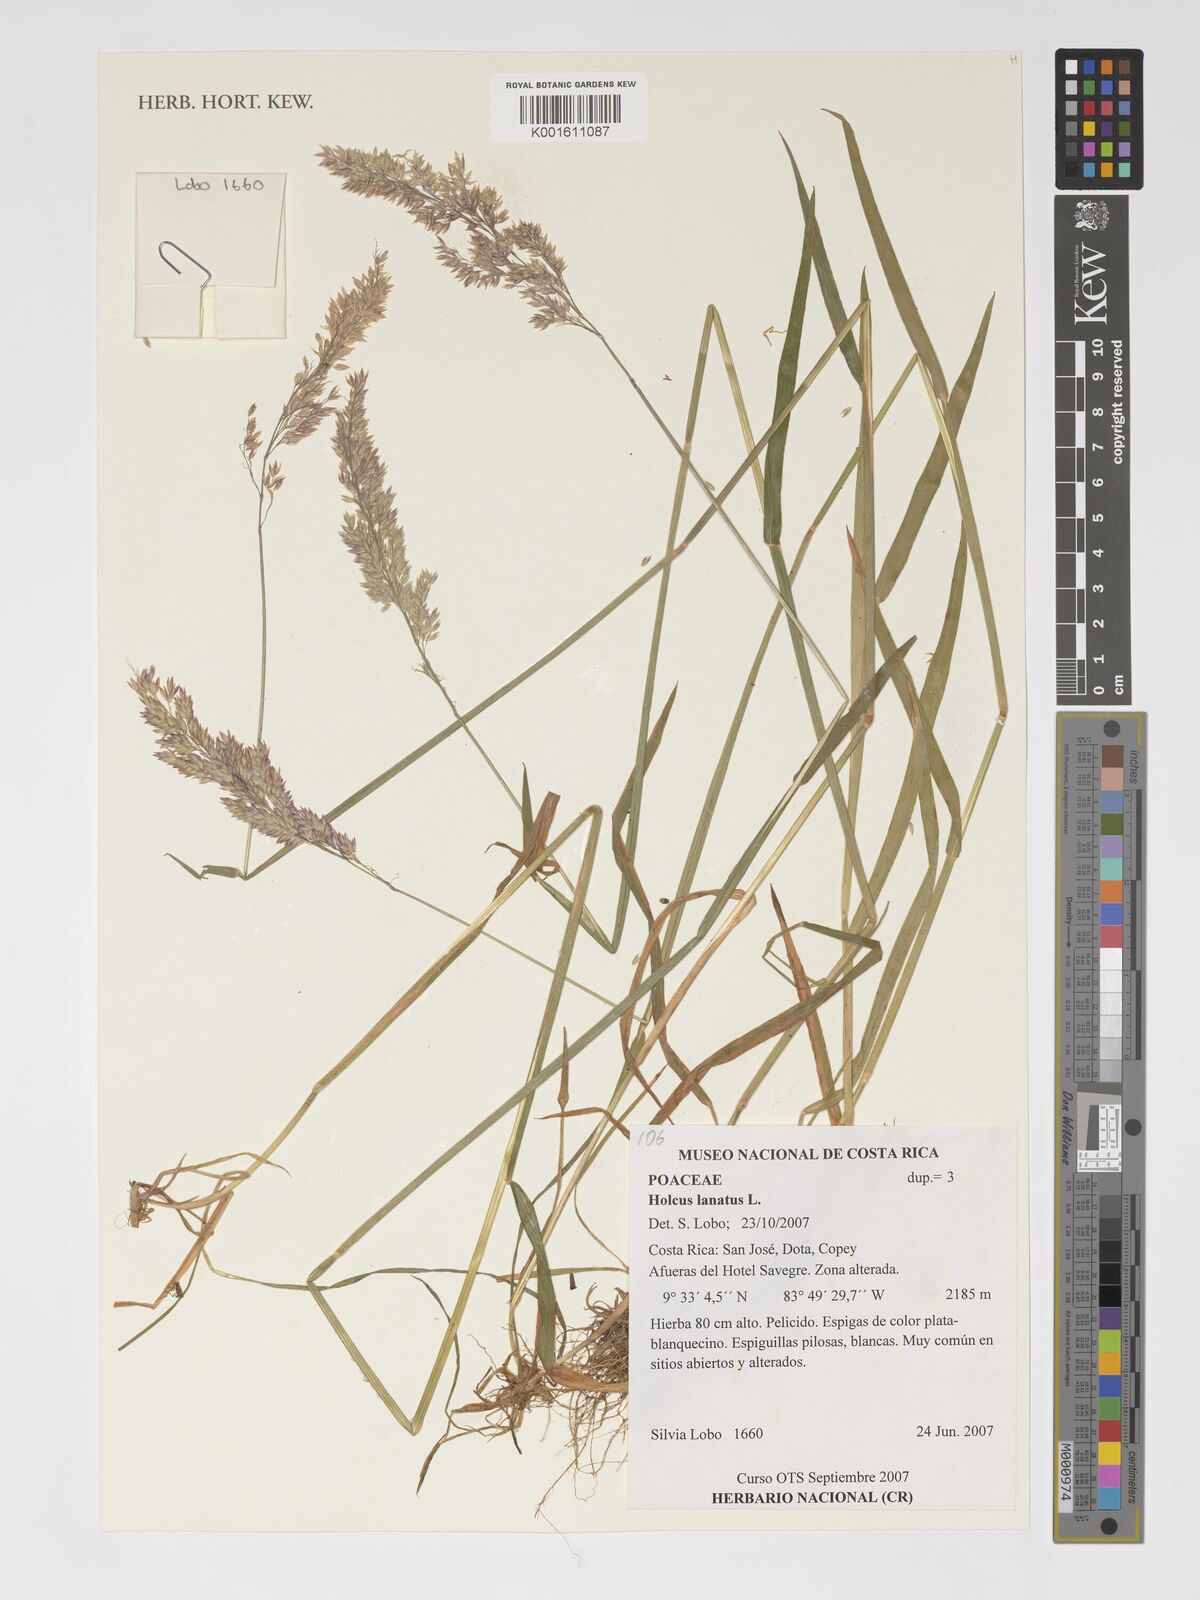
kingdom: Plantae
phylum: Tracheophyta
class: Liliopsida
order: Poales
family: Poaceae
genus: Holcus
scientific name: Holcus lanatus
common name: Yorkshire-fog
